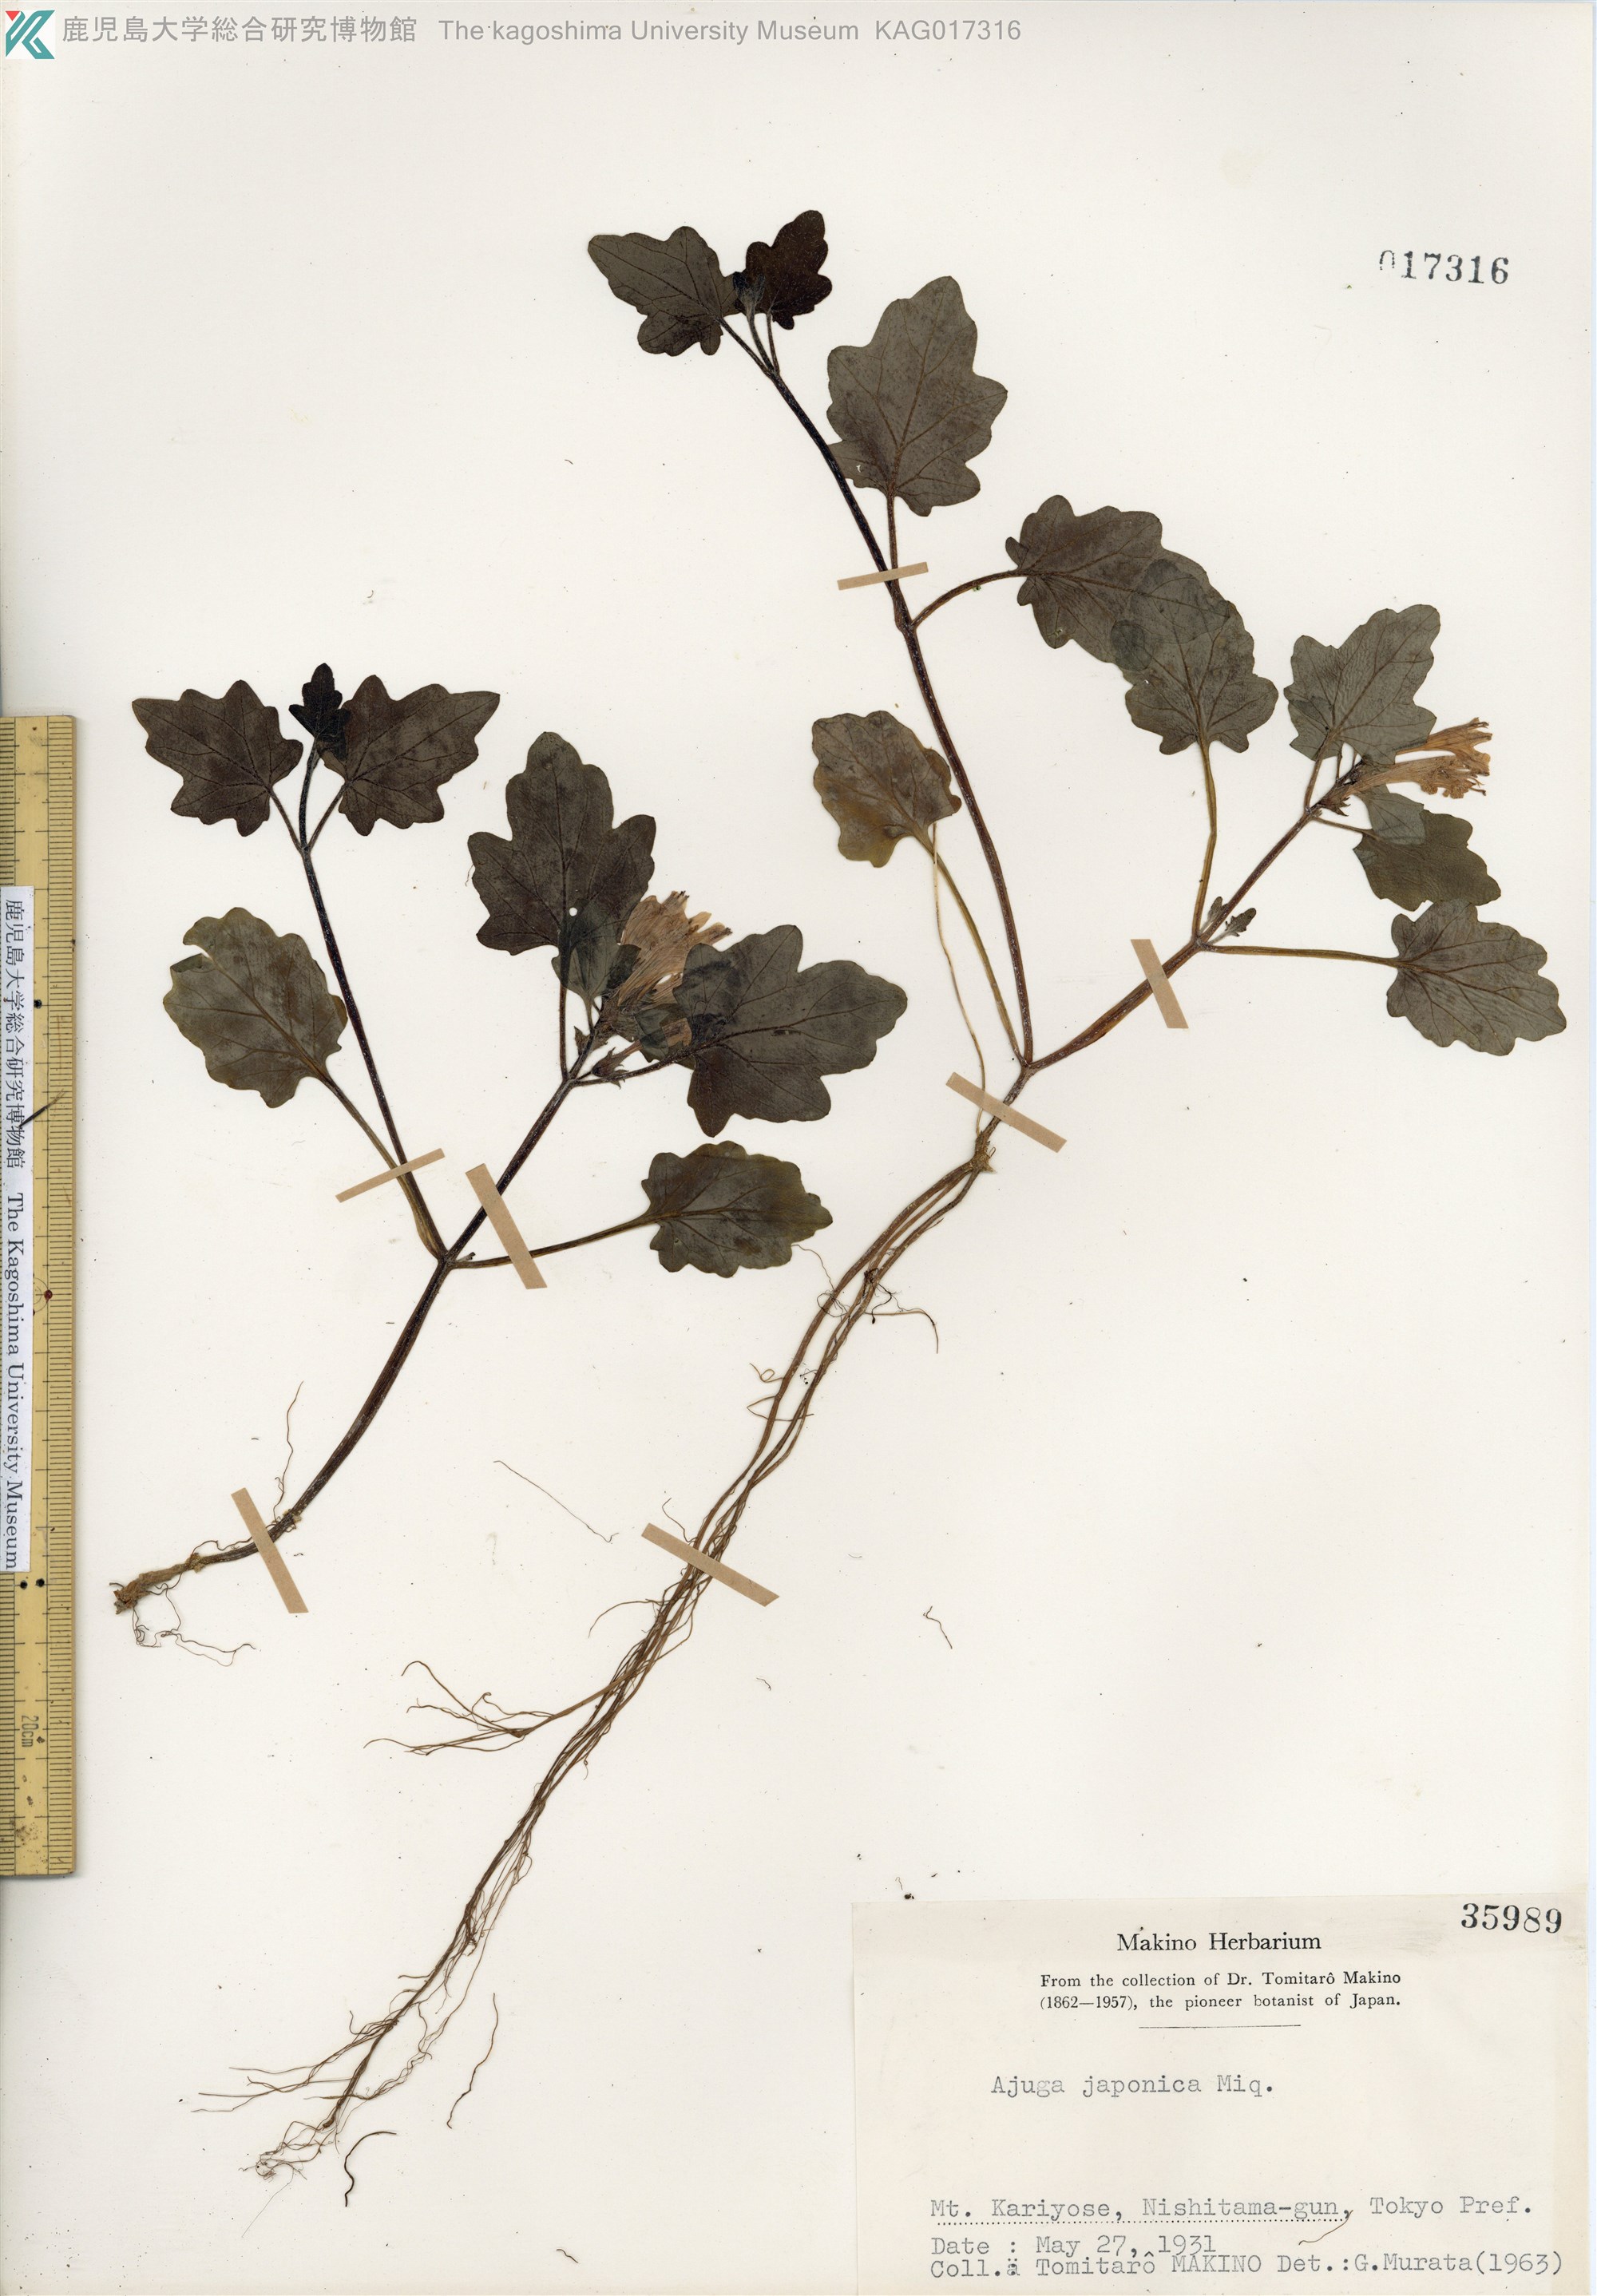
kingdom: Plantae
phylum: Tracheophyta
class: Magnoliopsida
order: Lamiales
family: Lamiaceae
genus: Ajuga
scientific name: Ajuga japonica
